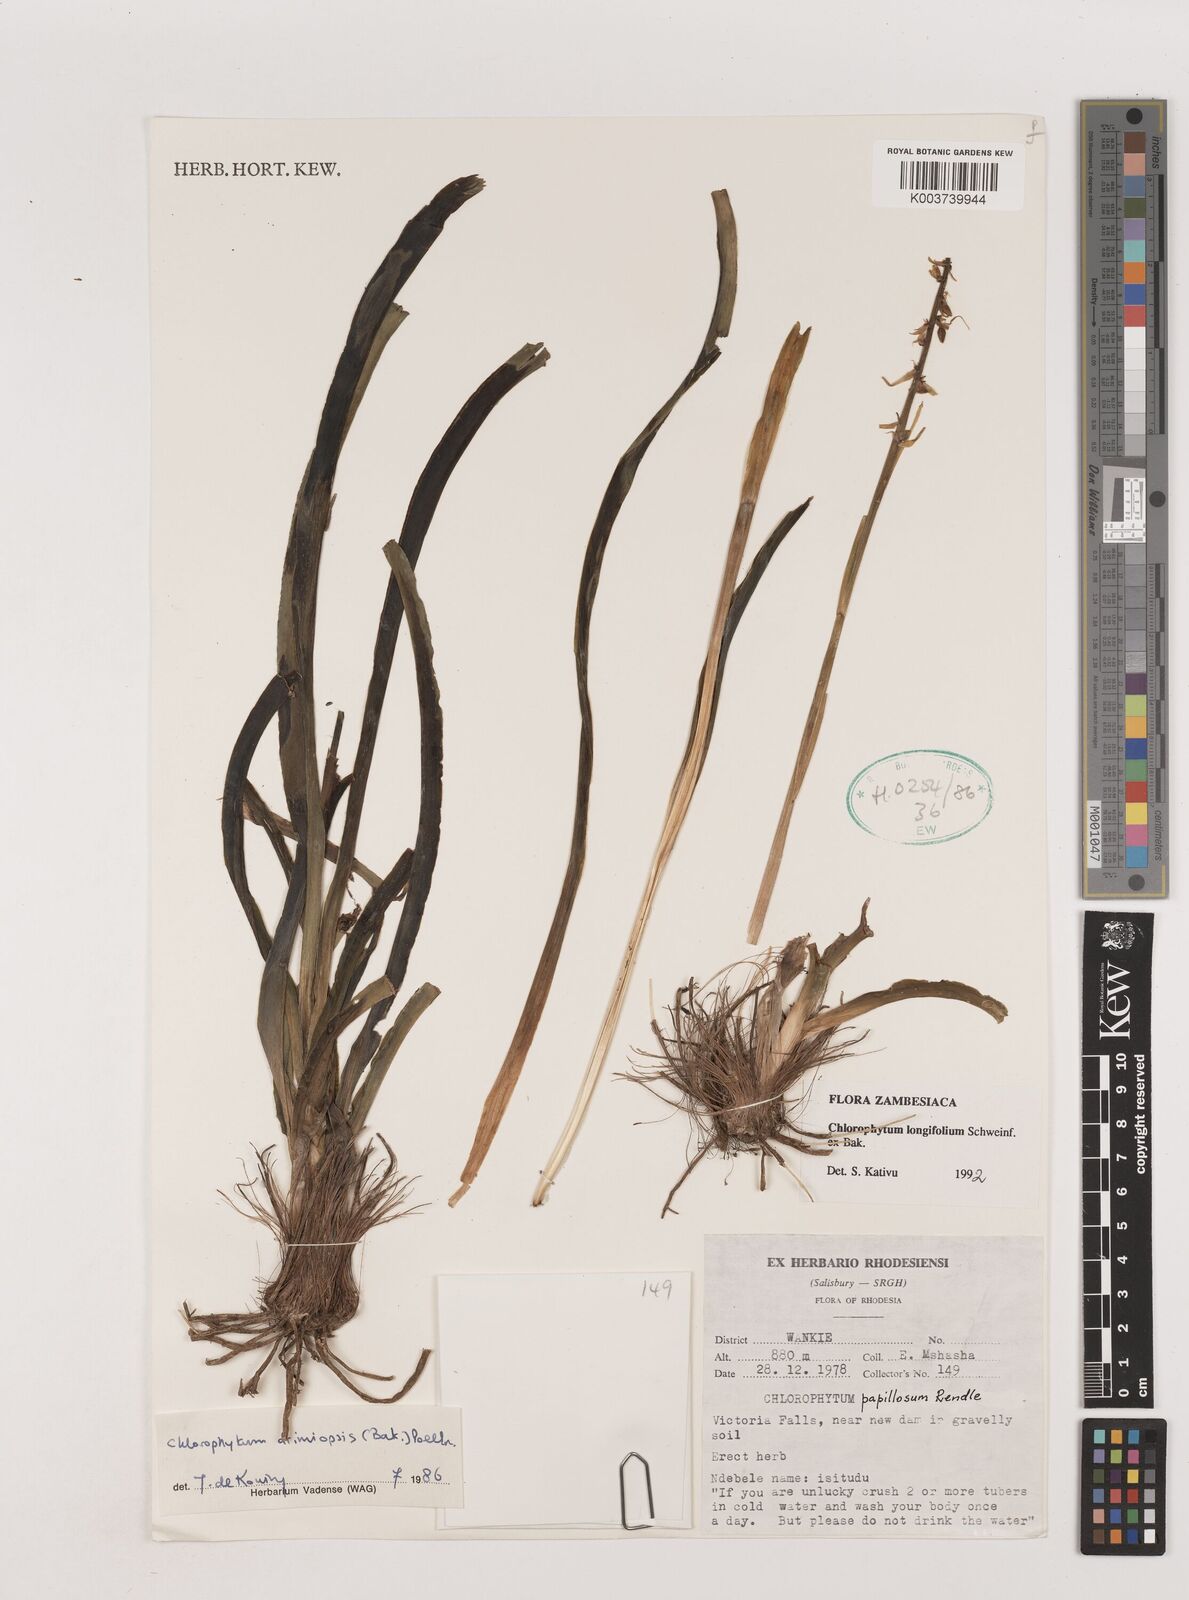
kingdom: Plantae
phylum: Tracheophyta
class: Liliopsida
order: Asparagales
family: Asparagaceae
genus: Chlorophytum
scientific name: Chlorophytum longifolium
